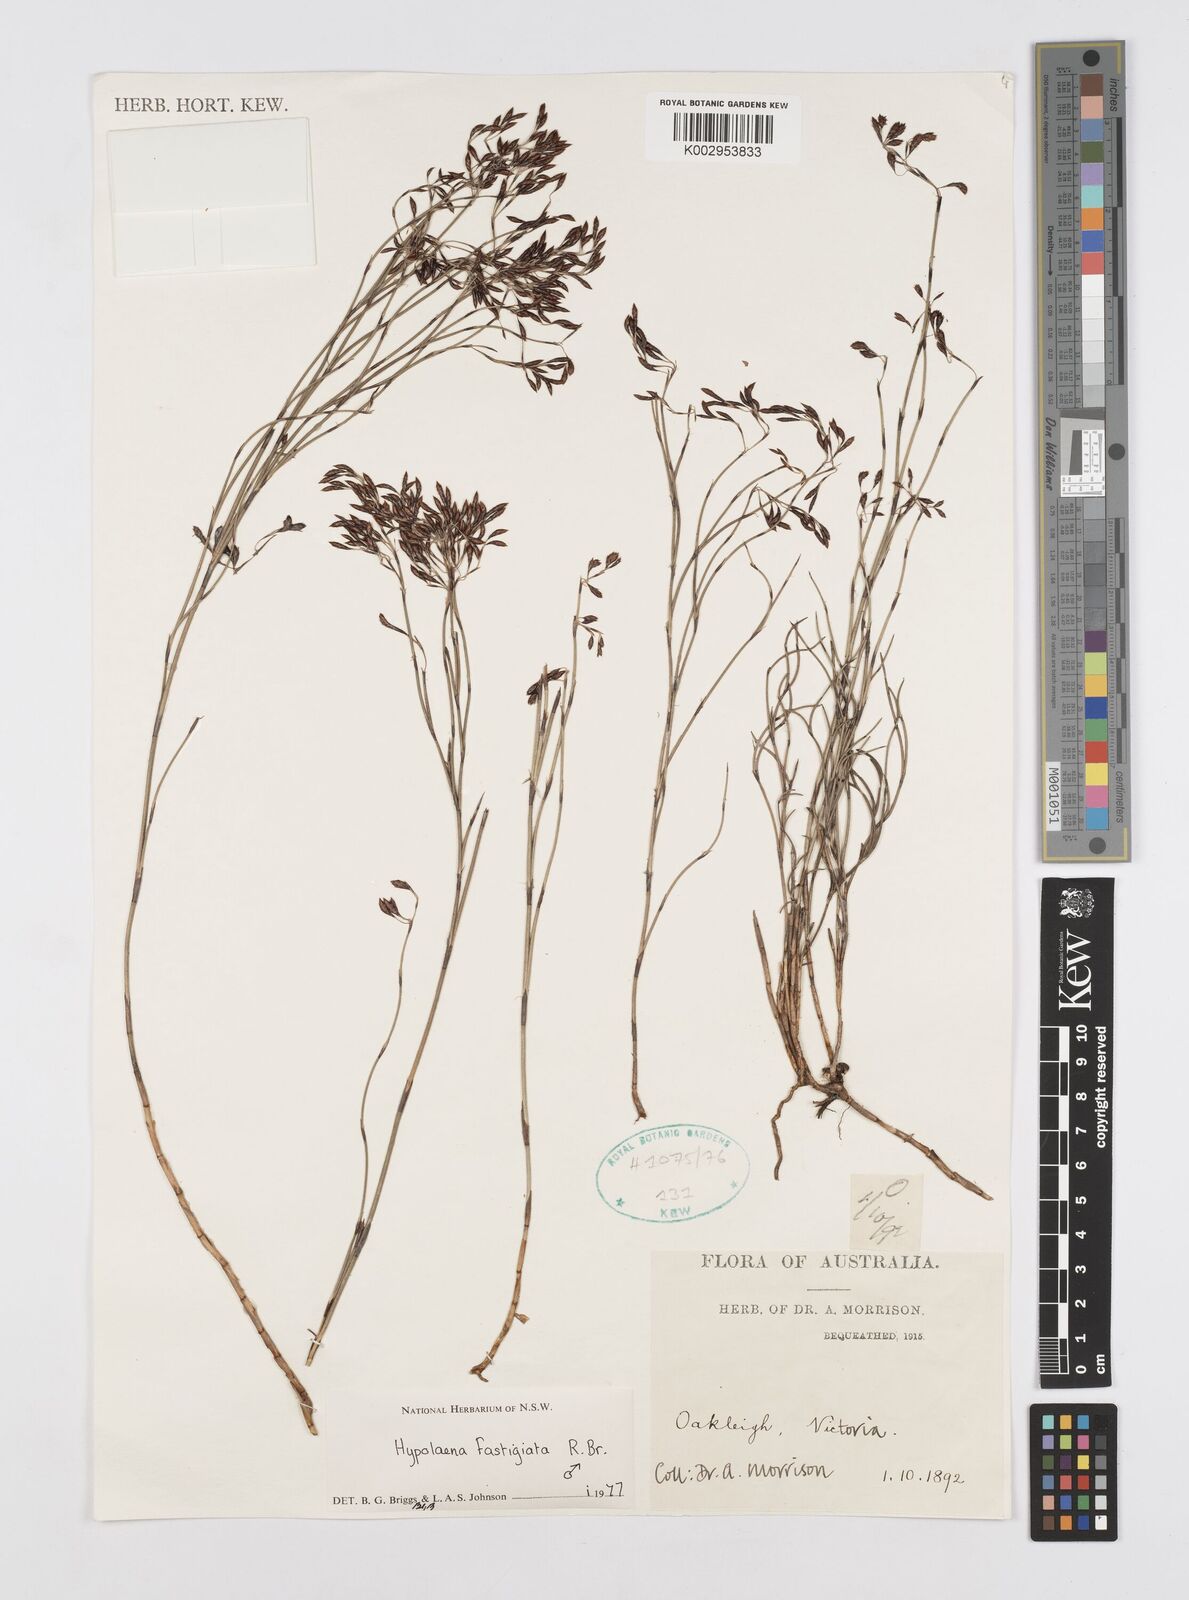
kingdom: Plantae
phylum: Tracheophyta
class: Liliopsida
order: Poales
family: Restionaceae
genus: Hypolaena
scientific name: Hypolaena fastigiata
